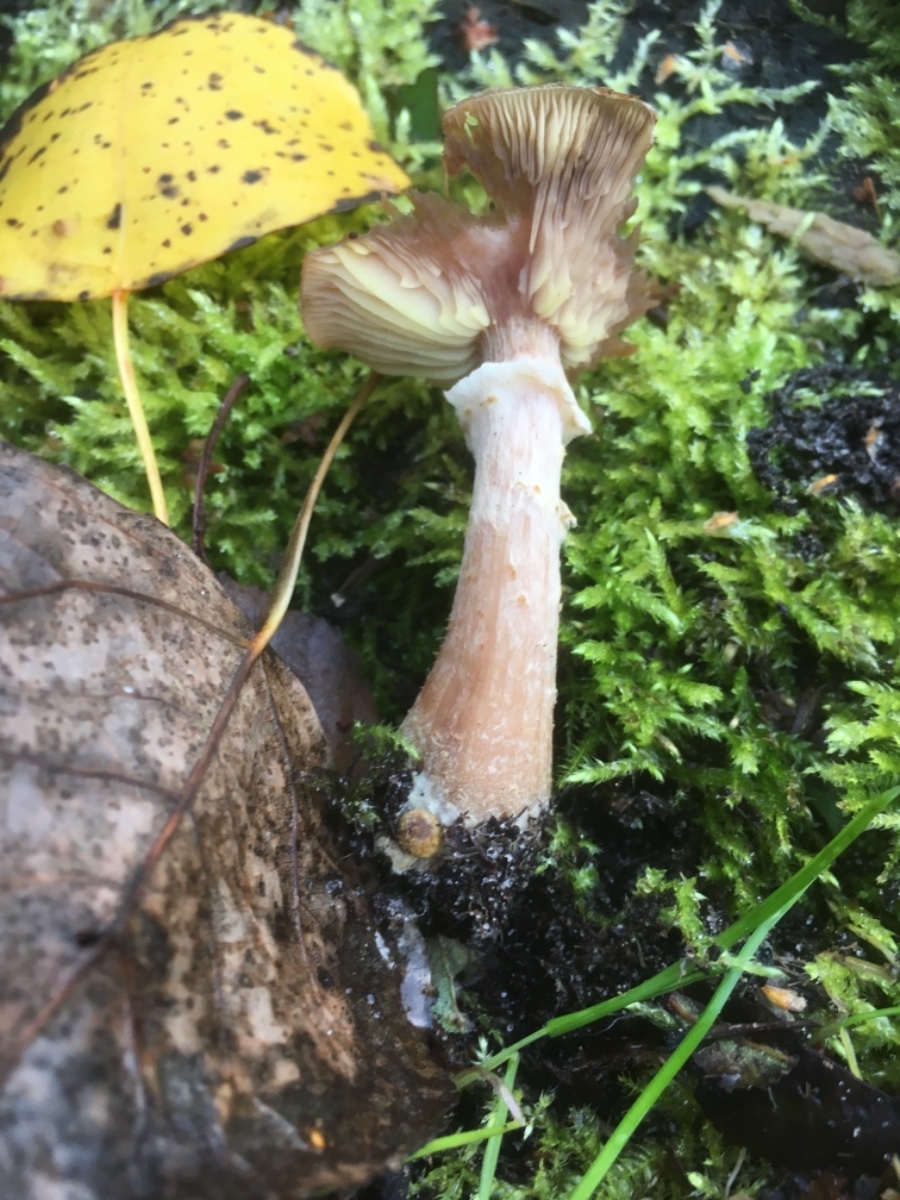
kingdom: Fungi
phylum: Basidiomycota
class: Agaricomycetes
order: Agaricales
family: Physalacriaceae
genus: Armillaria
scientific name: Armillaria lutea
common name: køllestokket honningsvamp
